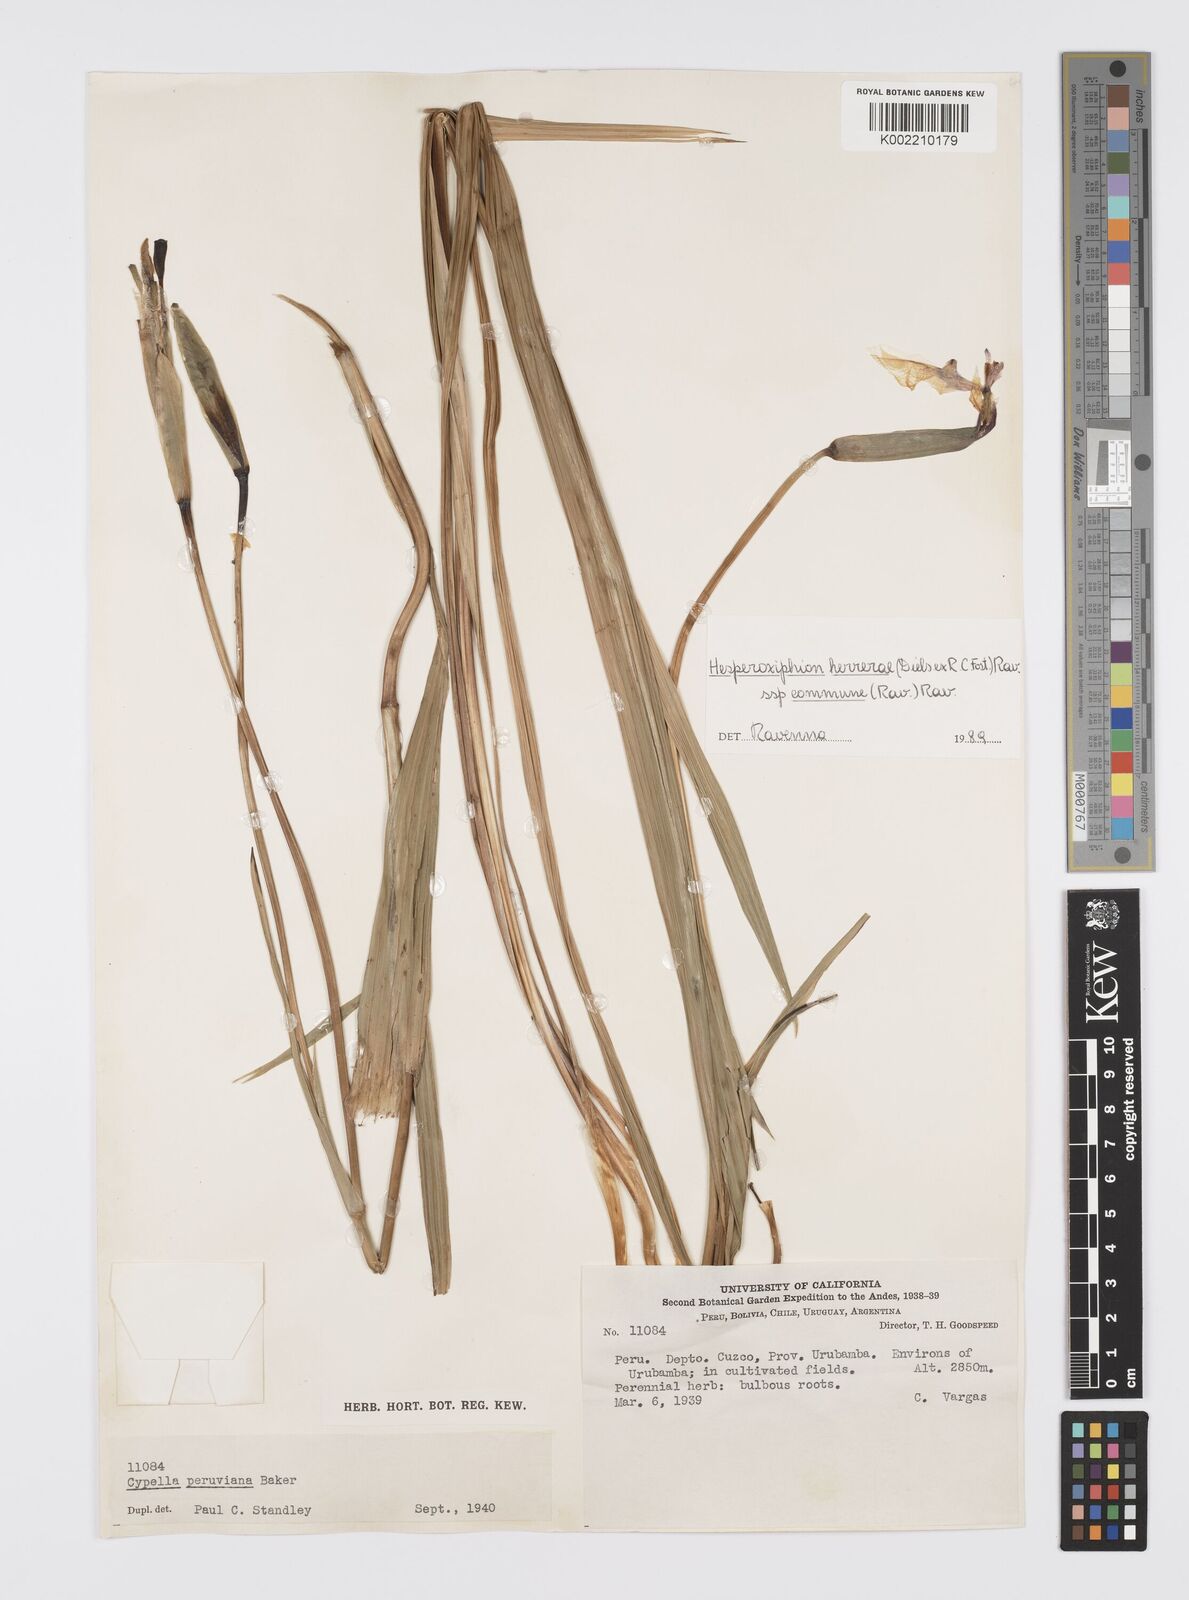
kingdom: Plantae
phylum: Tracheophyta
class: Liliopsida
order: Asparagales
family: Iridaceae
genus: Hesperoxiphion
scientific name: Hesperoxiphion herrerae
